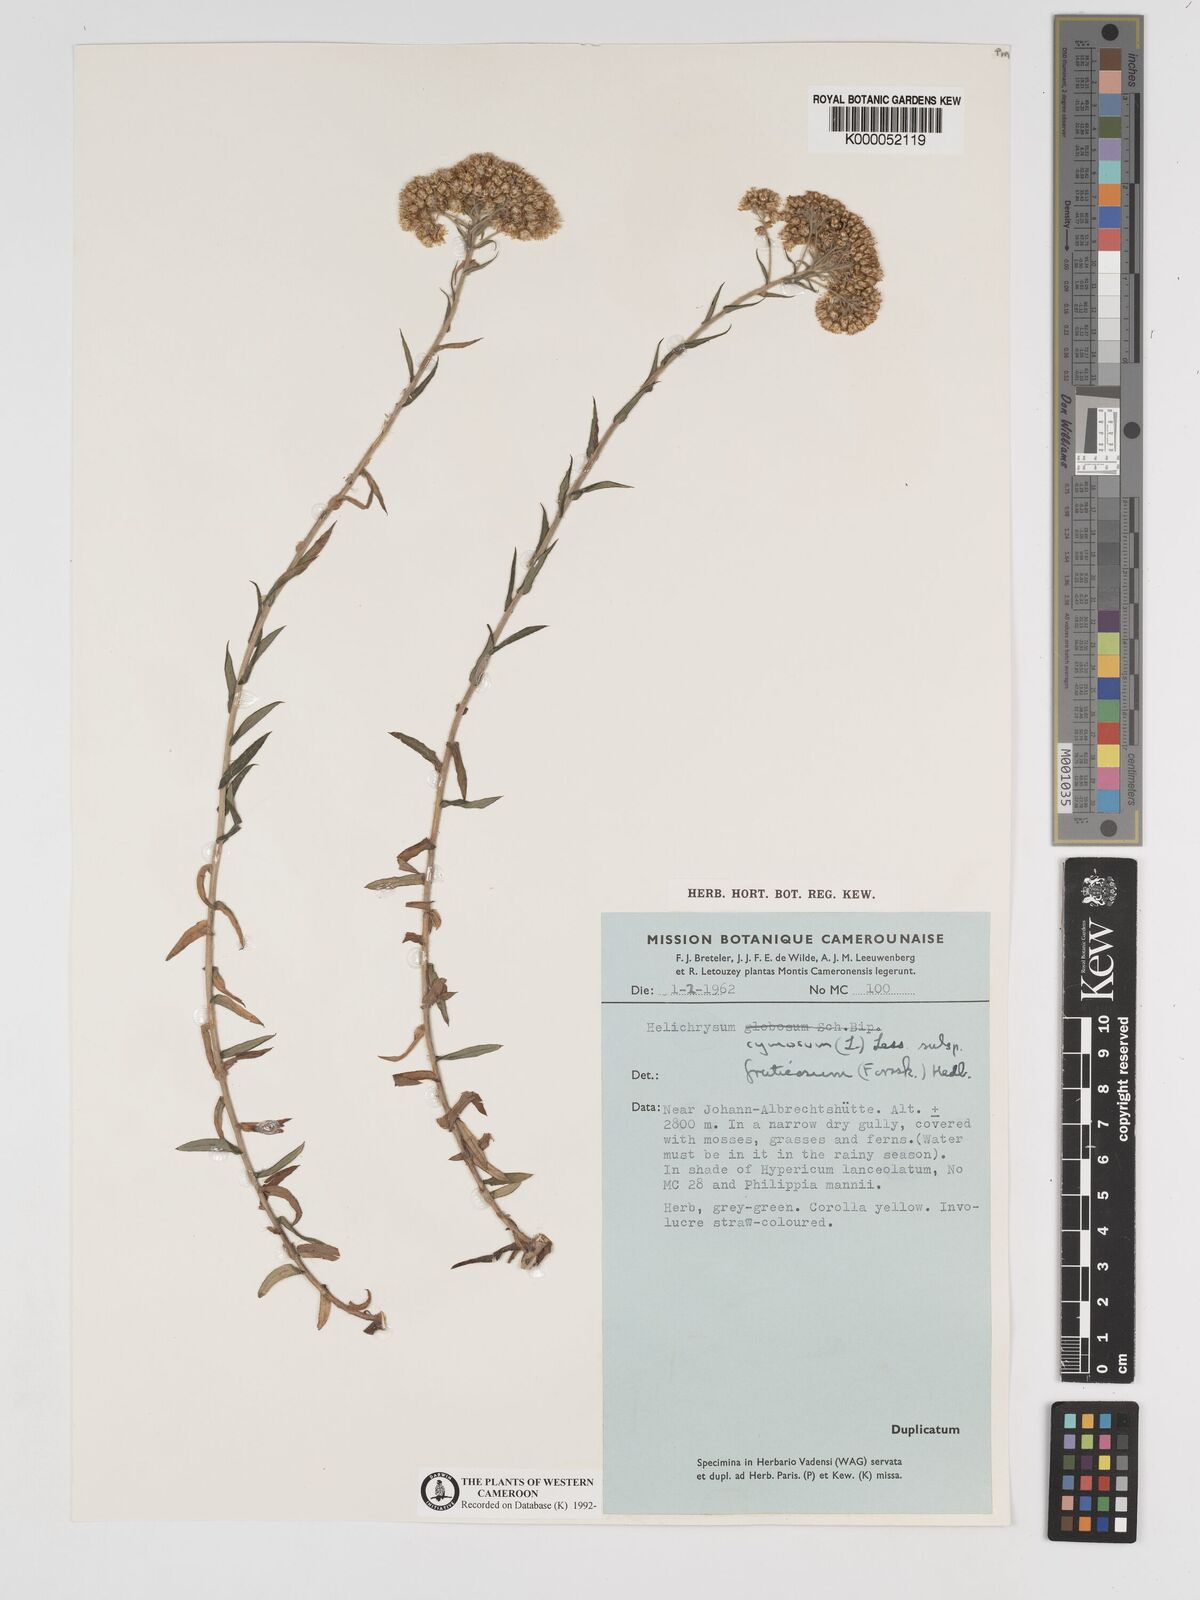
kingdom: Plantae
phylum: Tracheophyta
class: Magnoliopsida
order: Asterales
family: Asteraceae
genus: Helichrysum
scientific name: Helichrysum forskahlii
